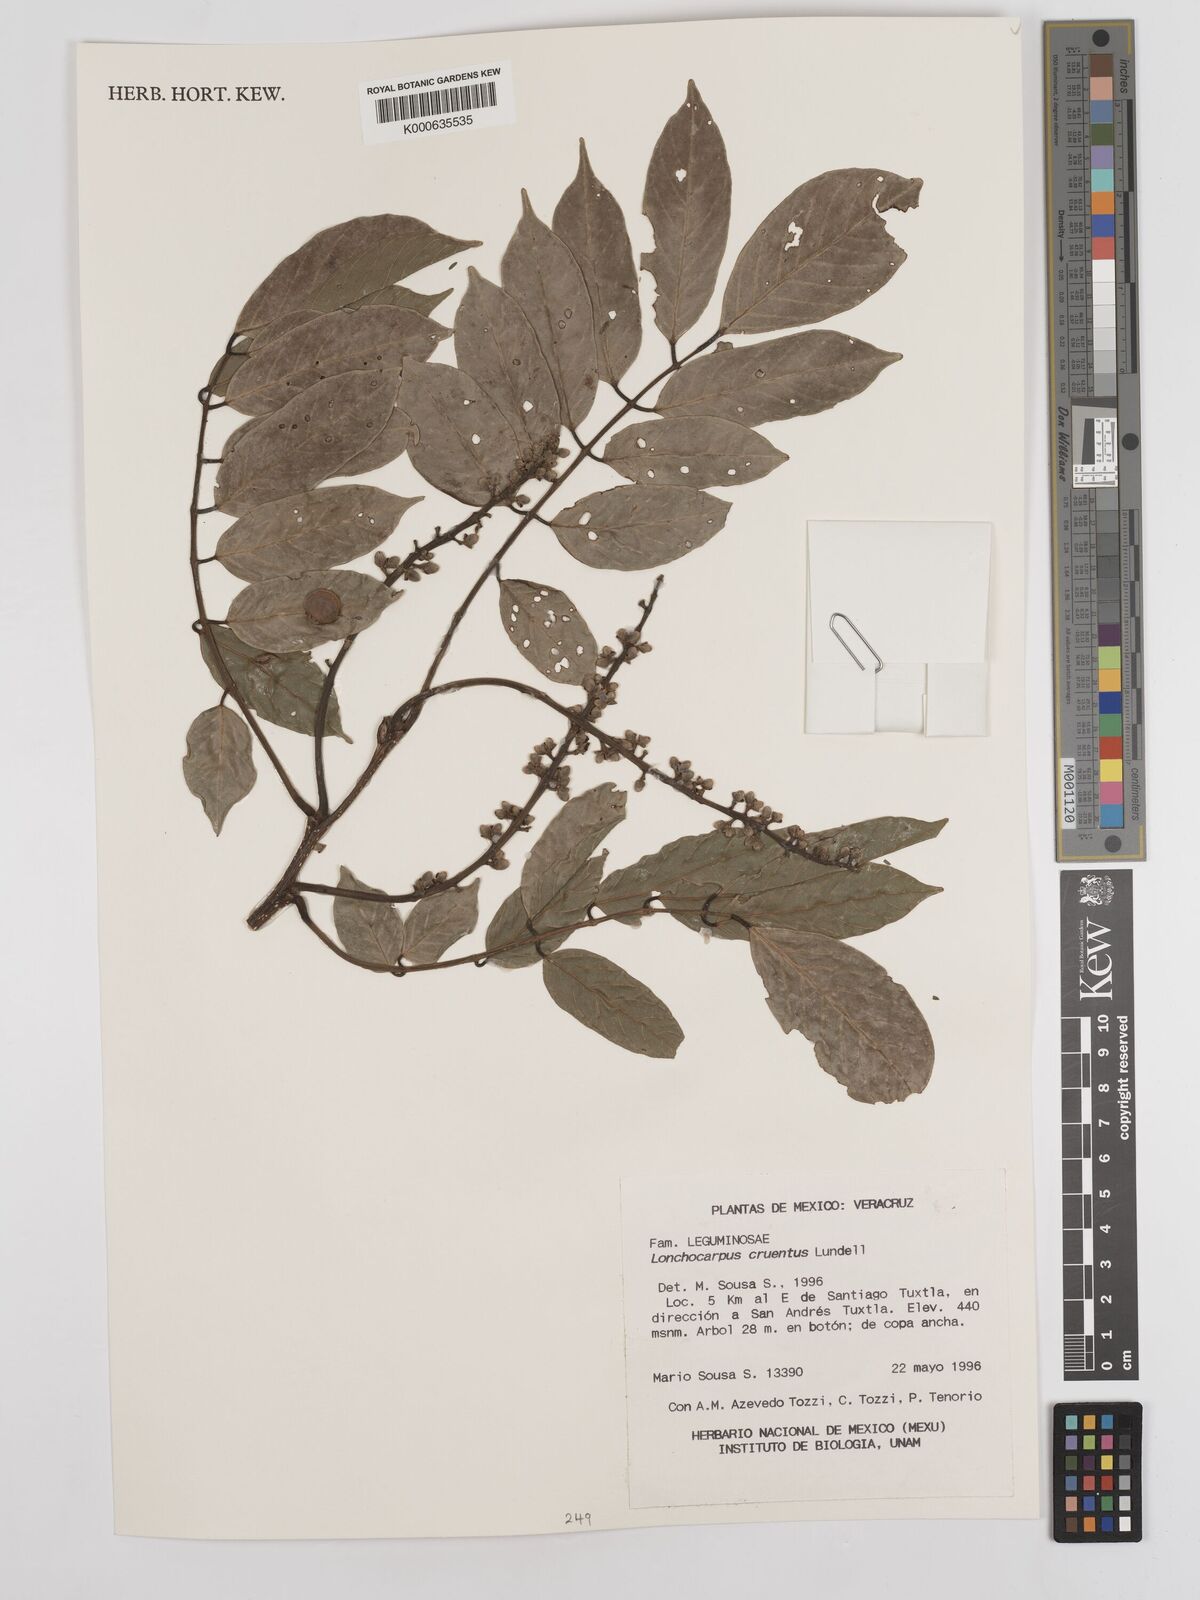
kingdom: Plantae
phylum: Tracheophyta
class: Magnoliopsida
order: Fabales
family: Fabaceae
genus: Lonchocarpus
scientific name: Lonchocarpus cruentus
